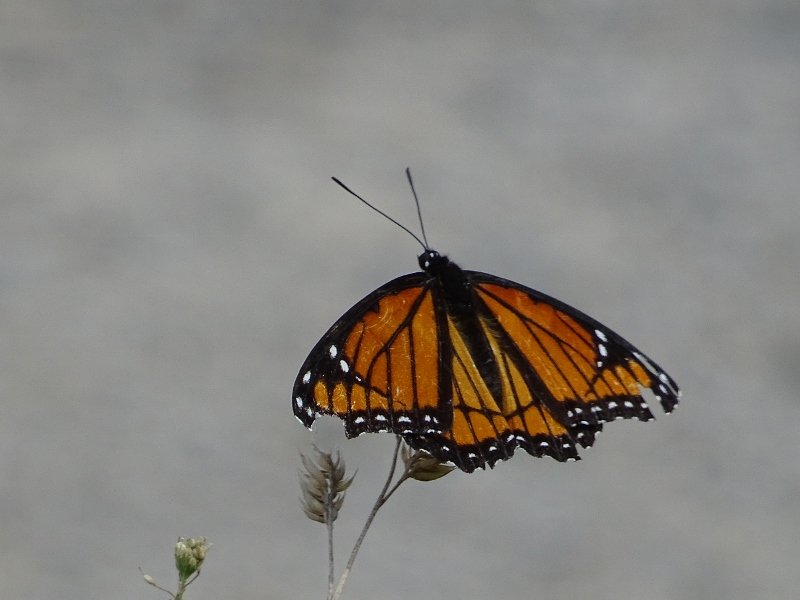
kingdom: Animalia
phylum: Arthropoda
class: Insecta
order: Lepidoptera
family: Nymphalidae
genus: Limenitis
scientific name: Limenitis archippus
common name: Viceroy
